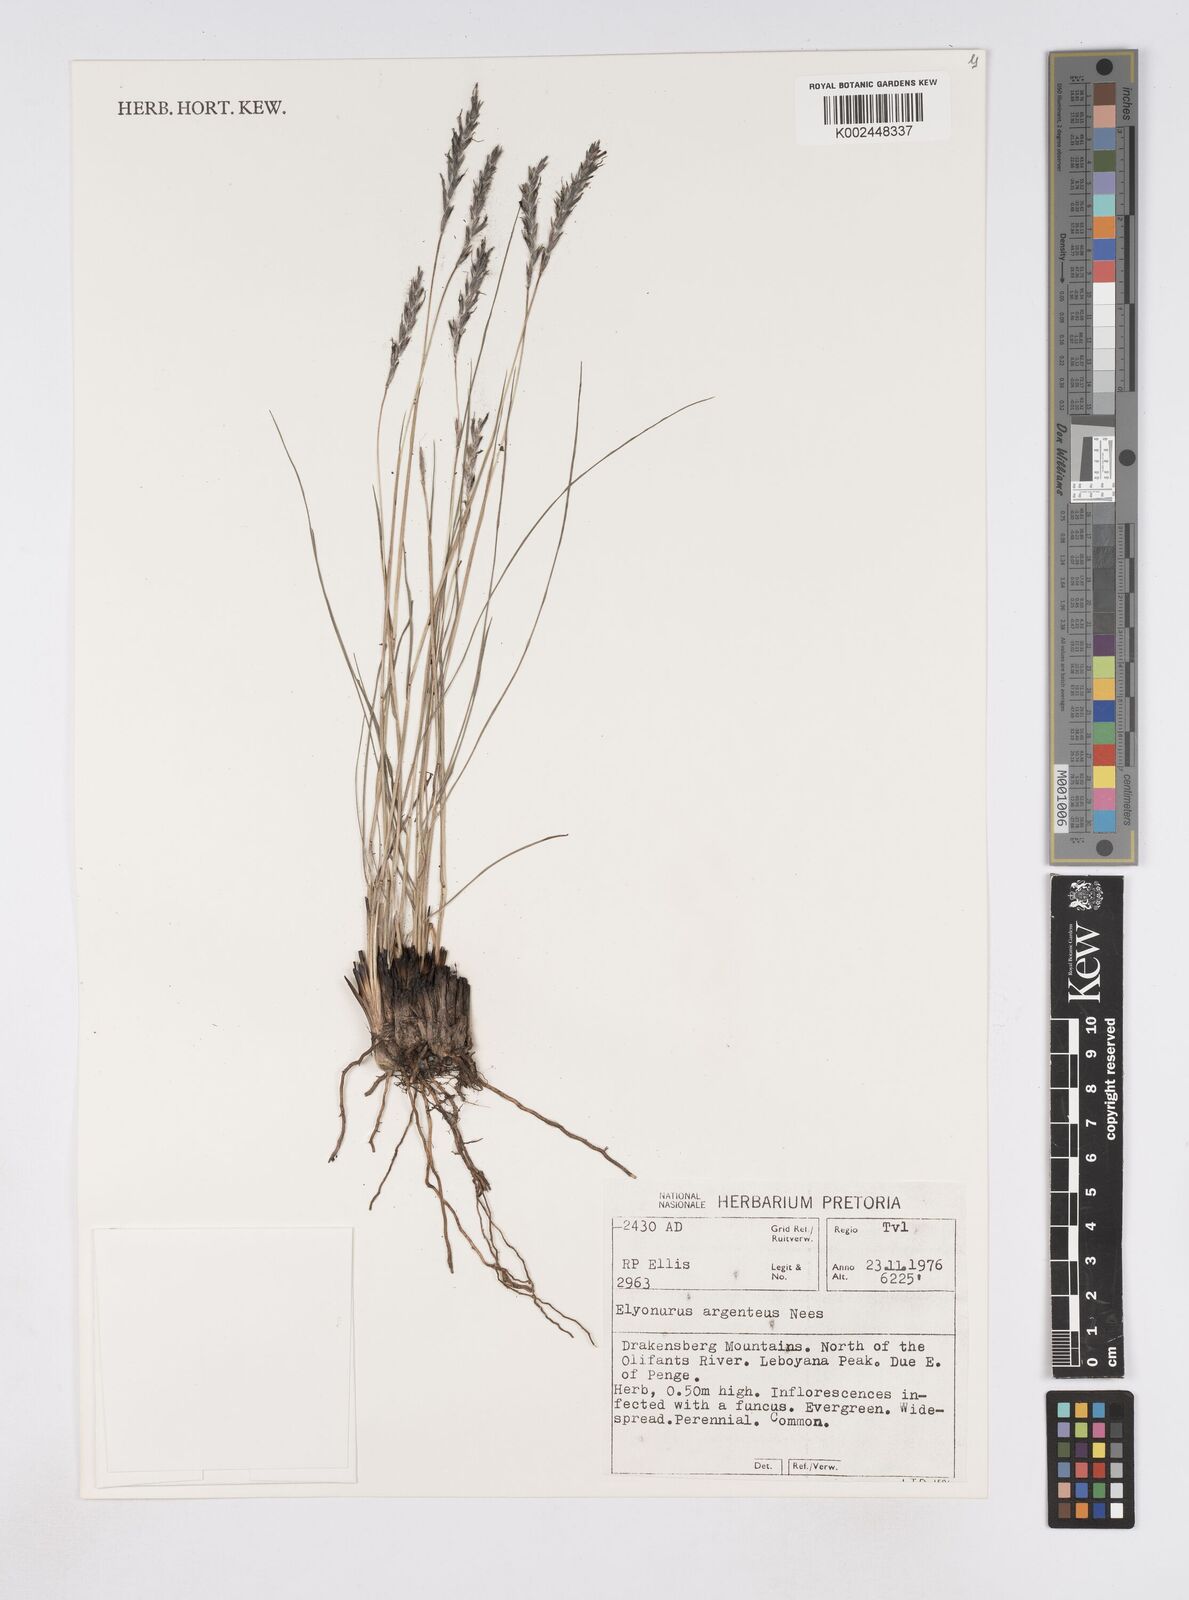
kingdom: Plantae
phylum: Tracheophyta
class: Liliopsida
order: Poales
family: Poaceae
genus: Elionurus
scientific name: Elionurus muticus
